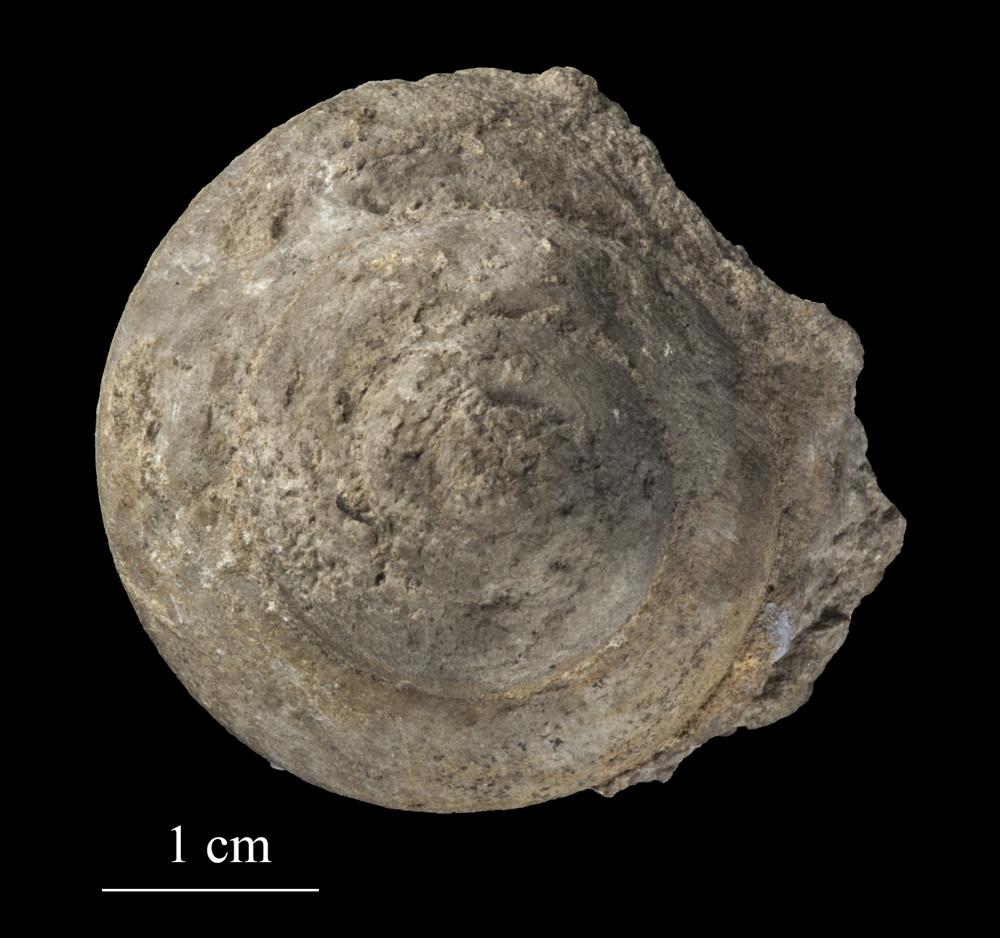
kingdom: Animalia
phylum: Mollusca
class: Gastropoda
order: Trochida
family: Trochidae
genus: Trochus
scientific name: Trochus ellipticus
